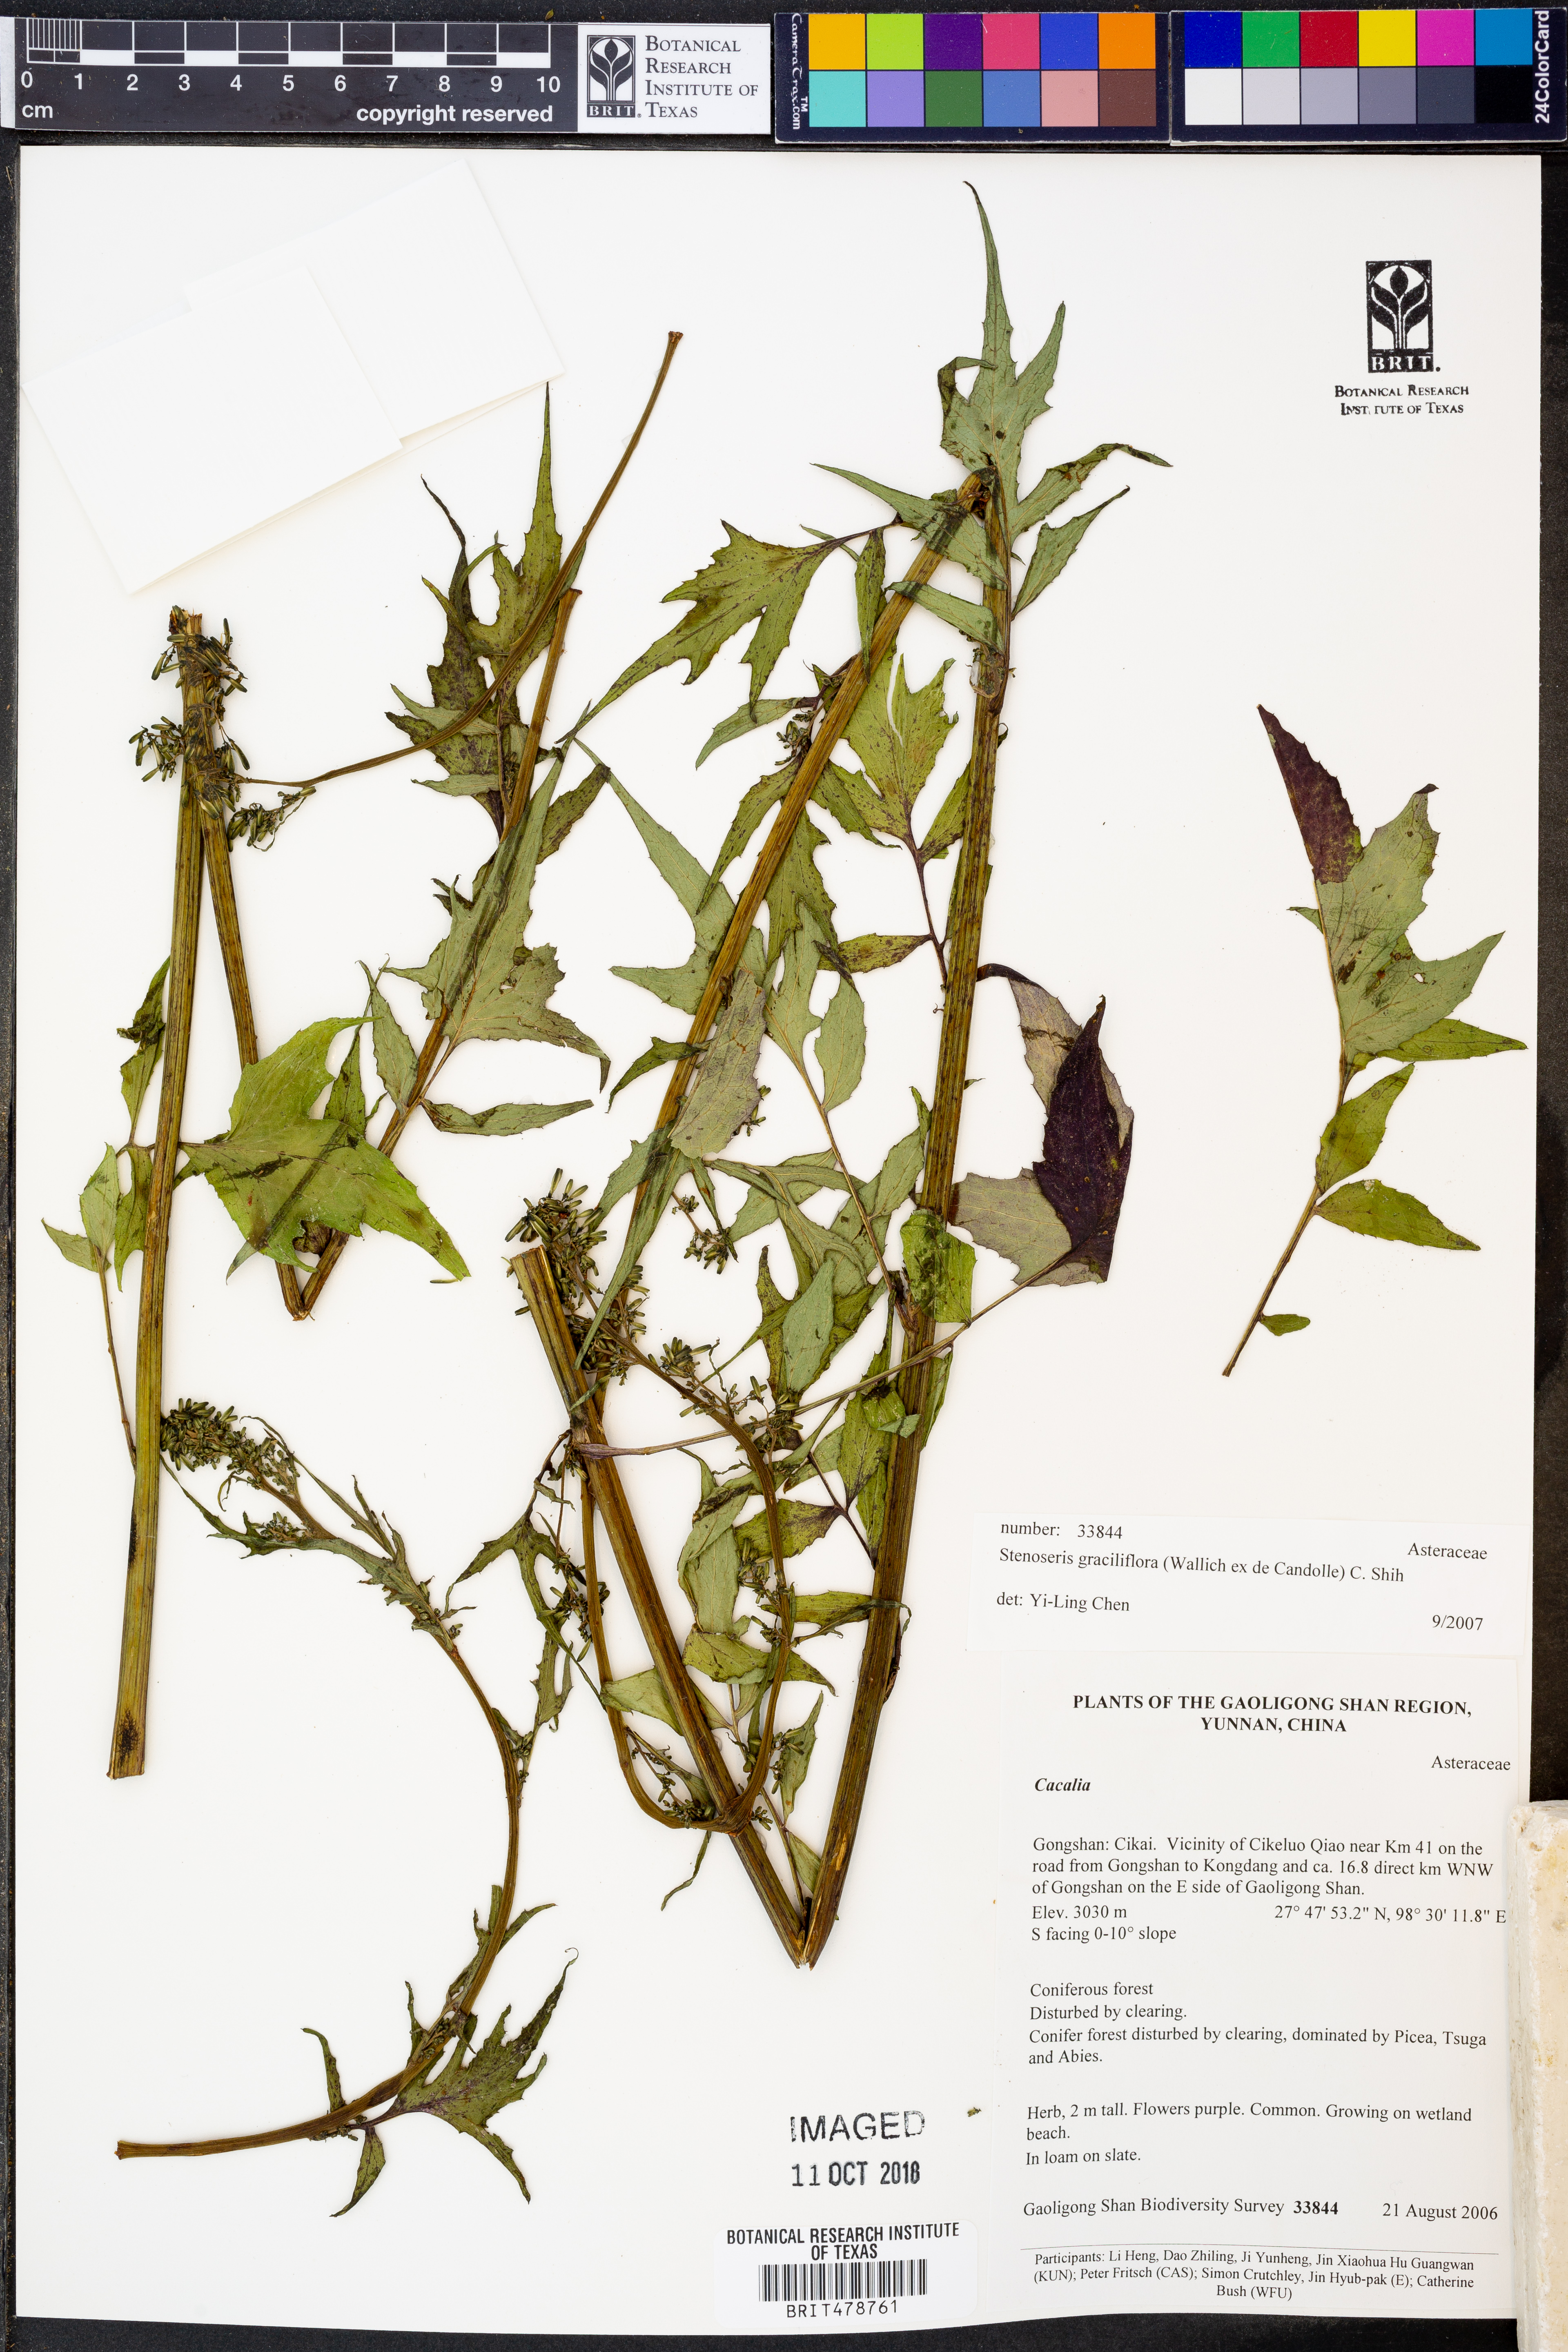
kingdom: Plantae
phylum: Tracheophyta
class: Magnoliopsida
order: Asterales
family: Asteraceae
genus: Melanoseris
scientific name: Melanoseris graciliflora
